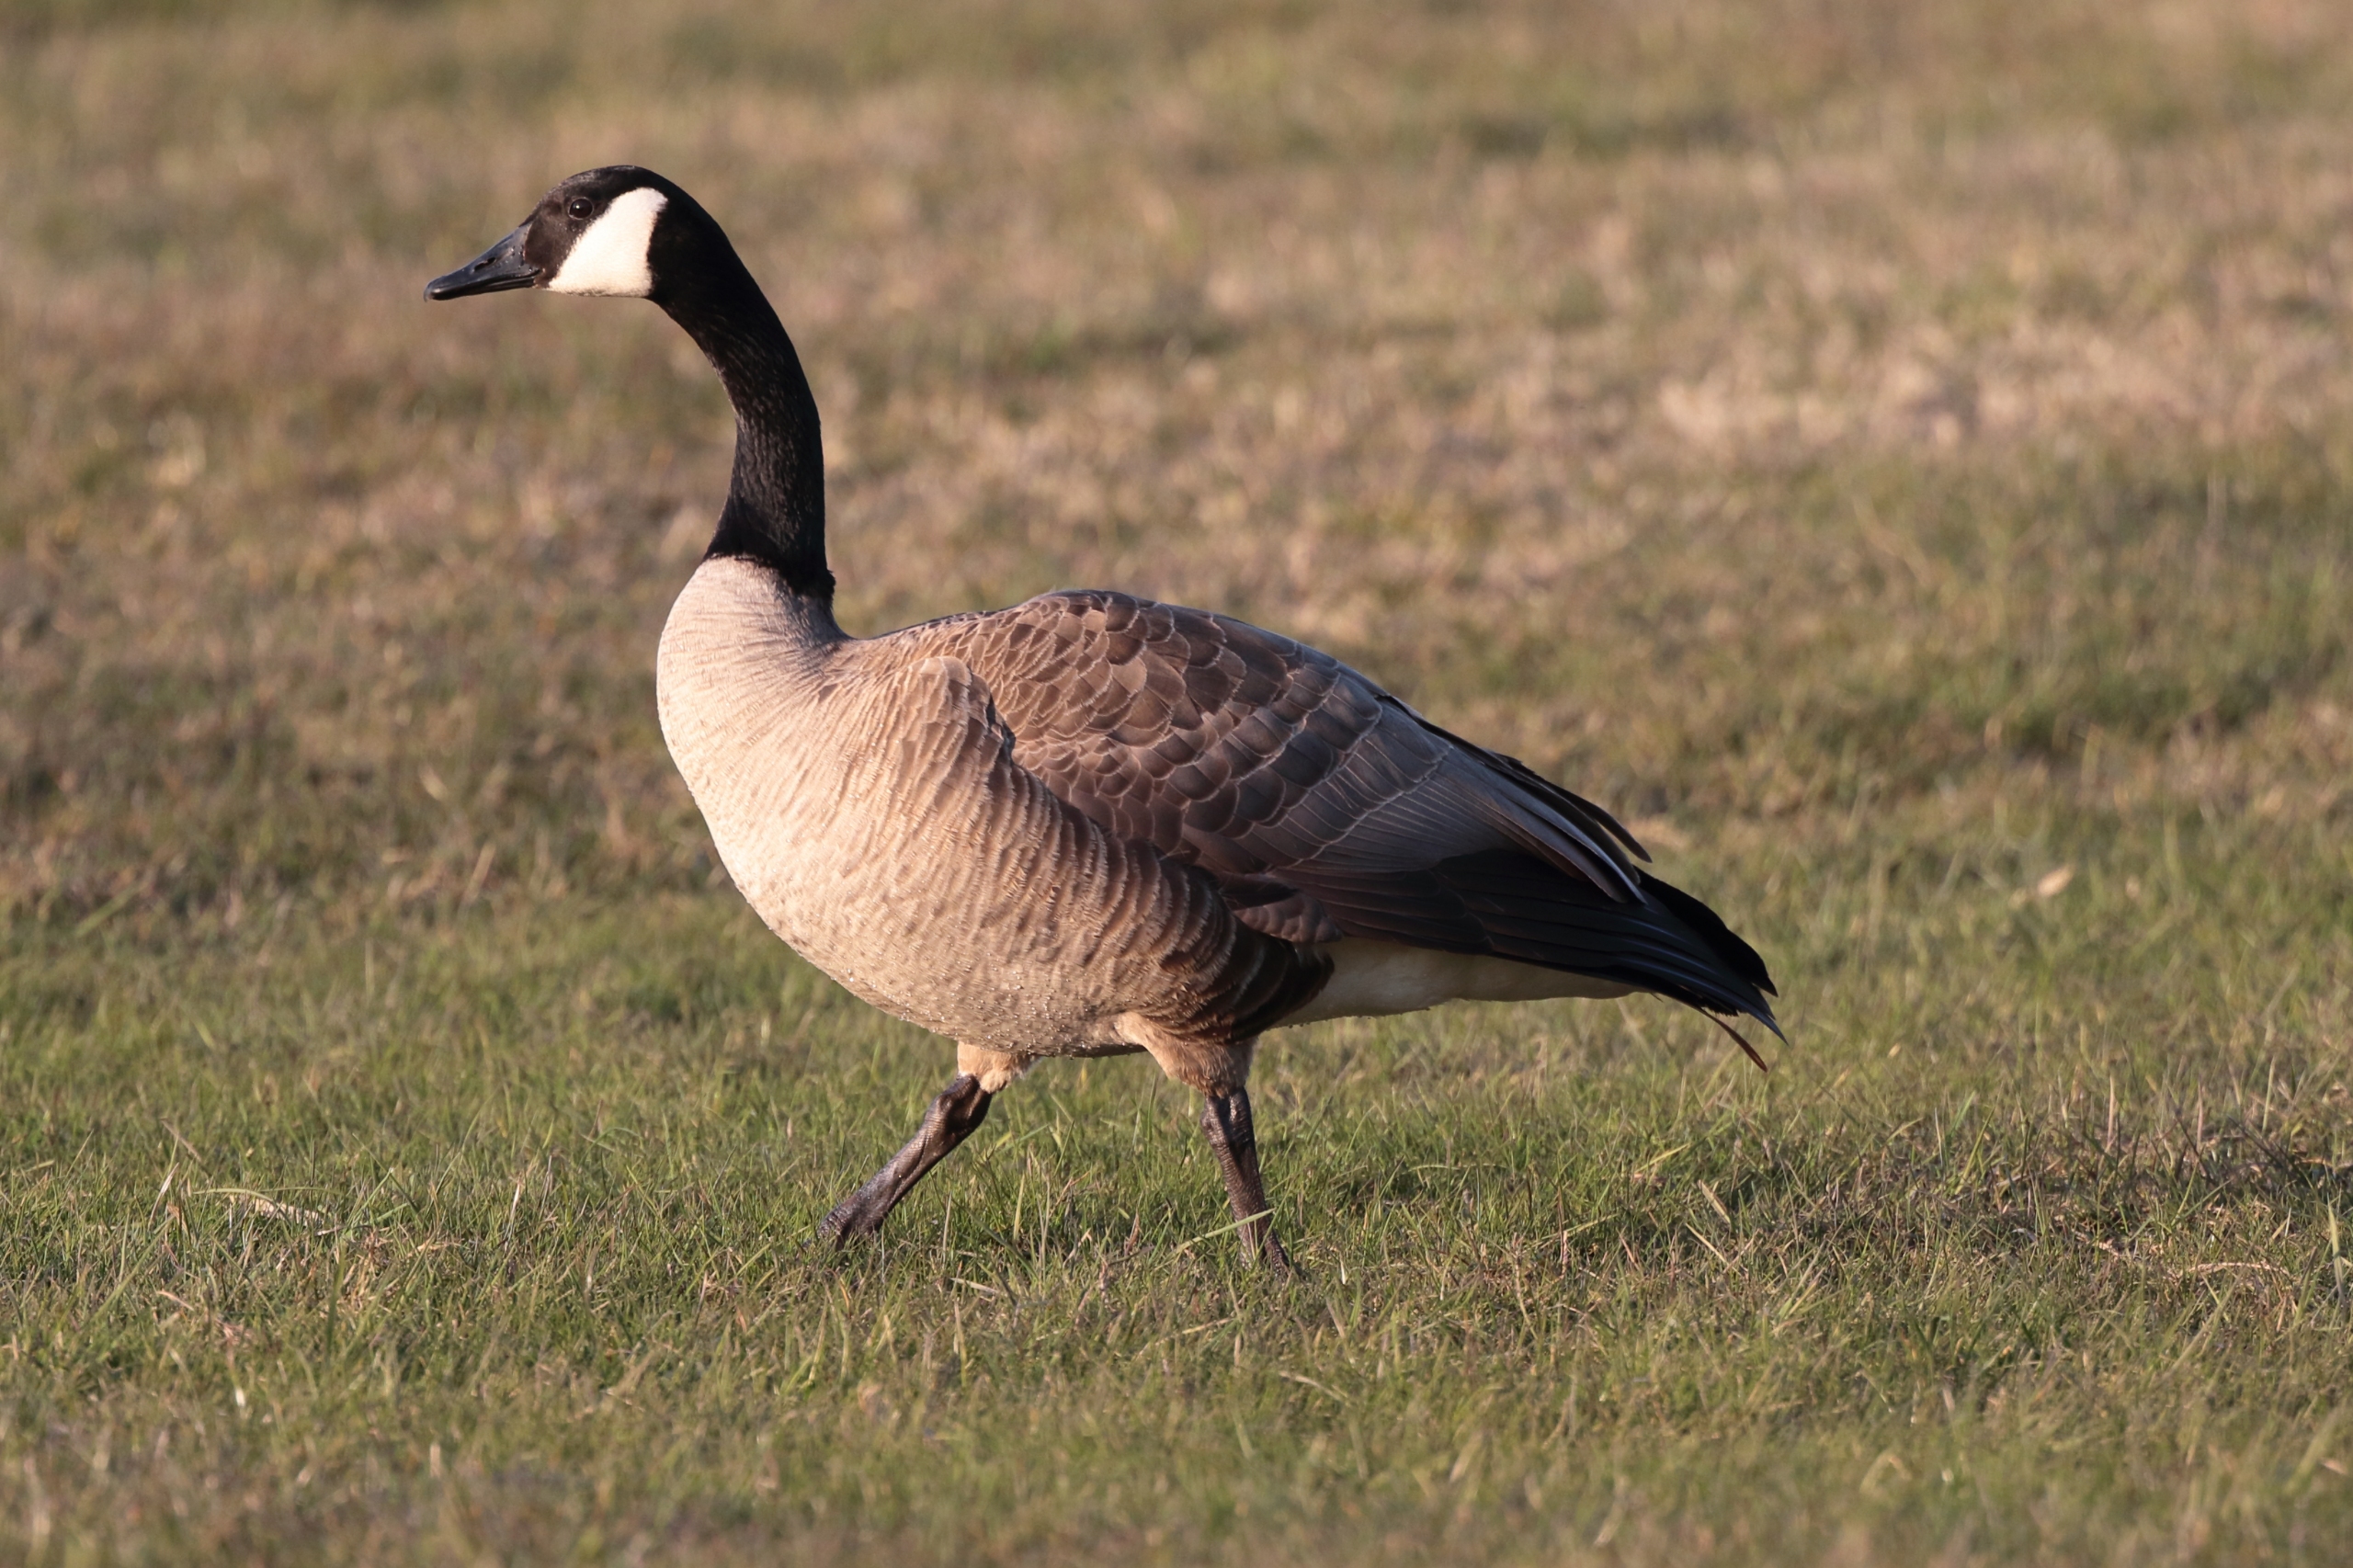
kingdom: Animalia
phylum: Chordata
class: Aves
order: Anseriformes
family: Anatidae
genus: Branta
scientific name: Branta canadensis
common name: Canadagås
